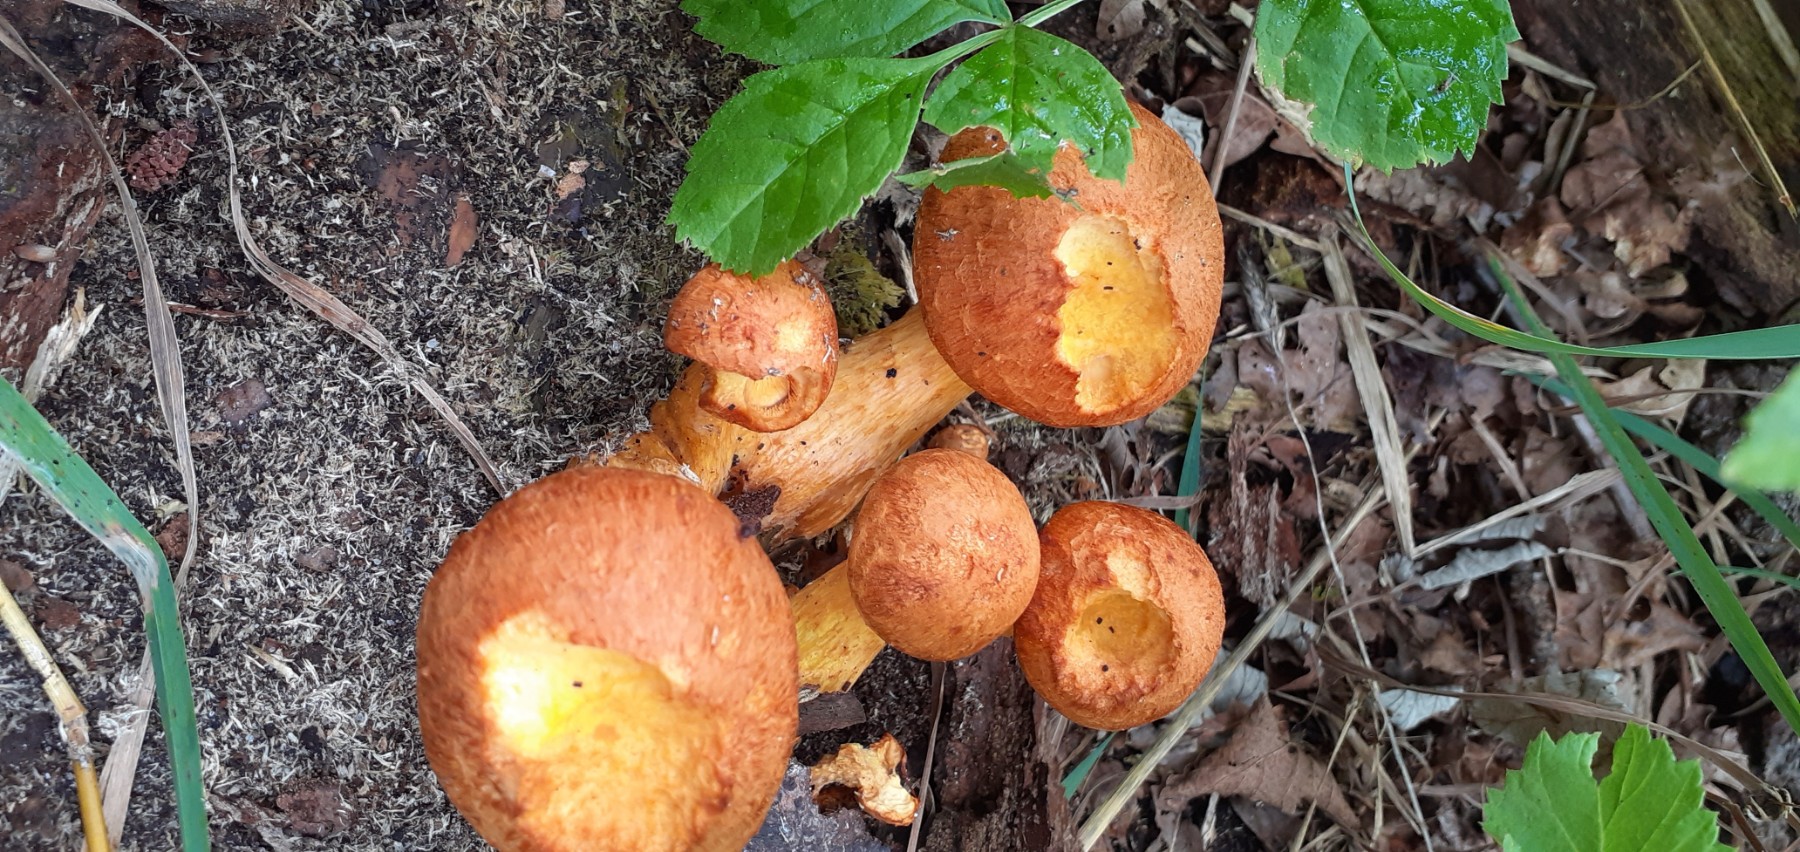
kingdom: Fungi
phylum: Basidiomycota
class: Agaricomycetes
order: Agaricales
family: Hymenogastraceae
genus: Gymnopilus
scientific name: Gymnopilus spectabilis
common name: fibret flammehat
